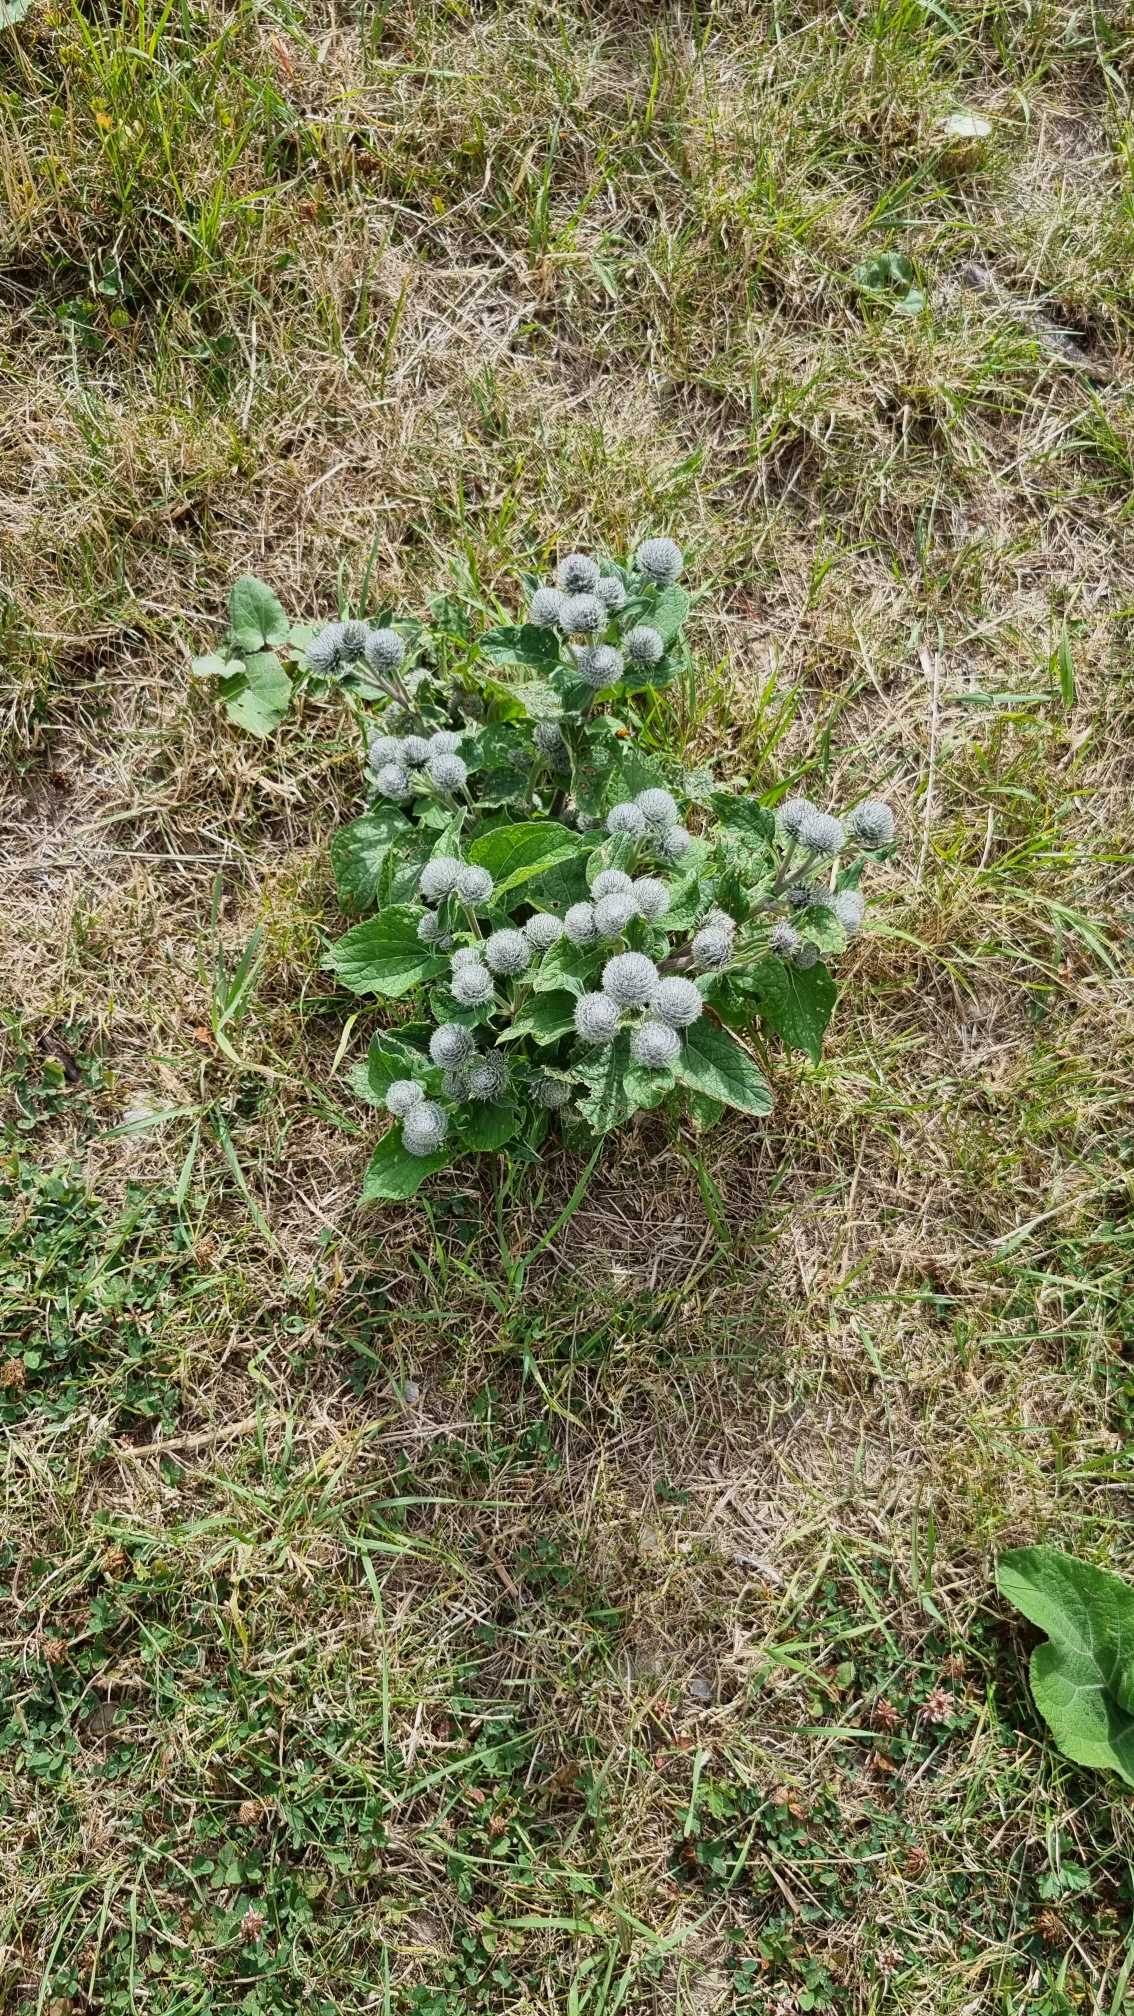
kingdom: Plantae
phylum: Tracheophyta
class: Magnoliopsida
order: Asterales
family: Asteraceae
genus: Arctium
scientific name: Arctium tomentosum
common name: Filtet burre
